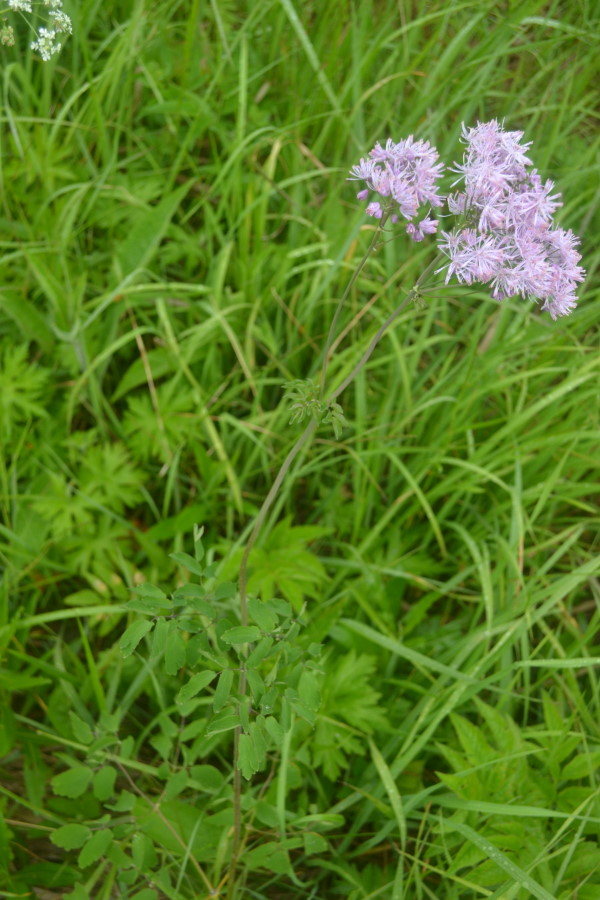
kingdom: Plantae
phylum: Tracheophyta
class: Magnoliopsida
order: Ranunculales
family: Ranunculaceae
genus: Thalictrum
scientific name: Thalictrum aquilegiifolium
